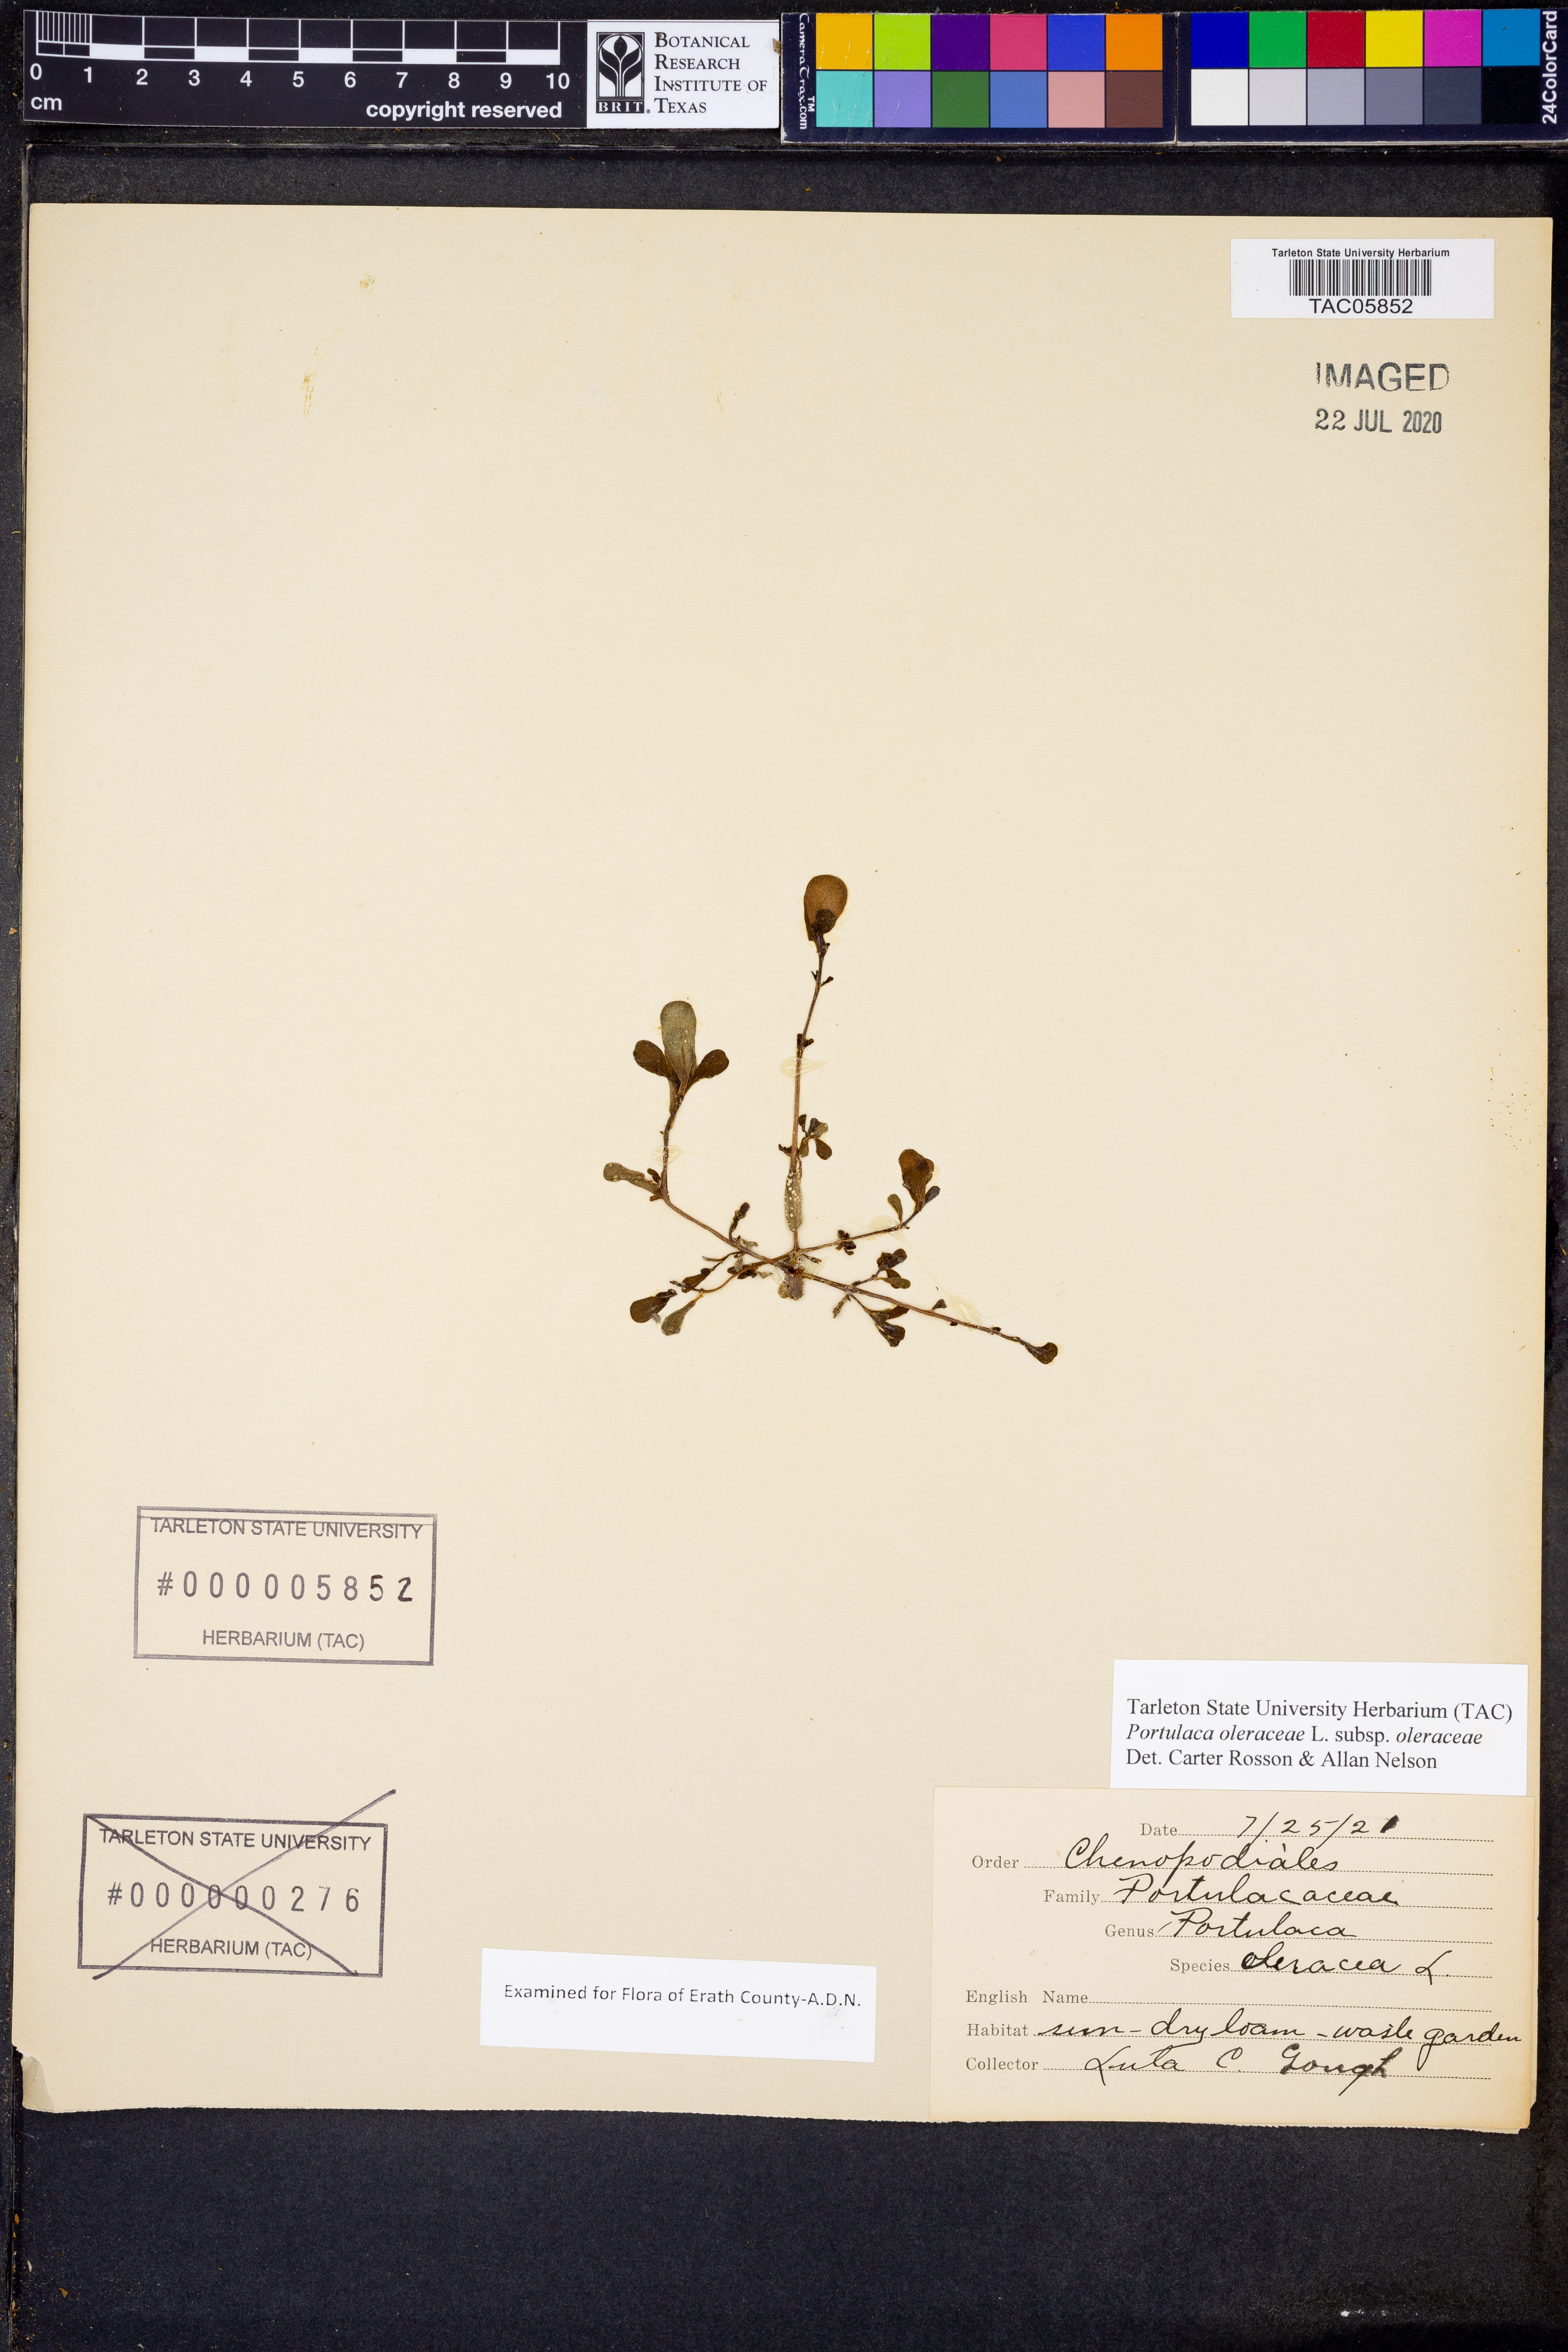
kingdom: Plantae
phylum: Tracheophyta
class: Magnoliopsida
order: Caryophyllales
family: Portulacaceae
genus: Portulaca
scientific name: Portulaca oleracea
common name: Common purslane
